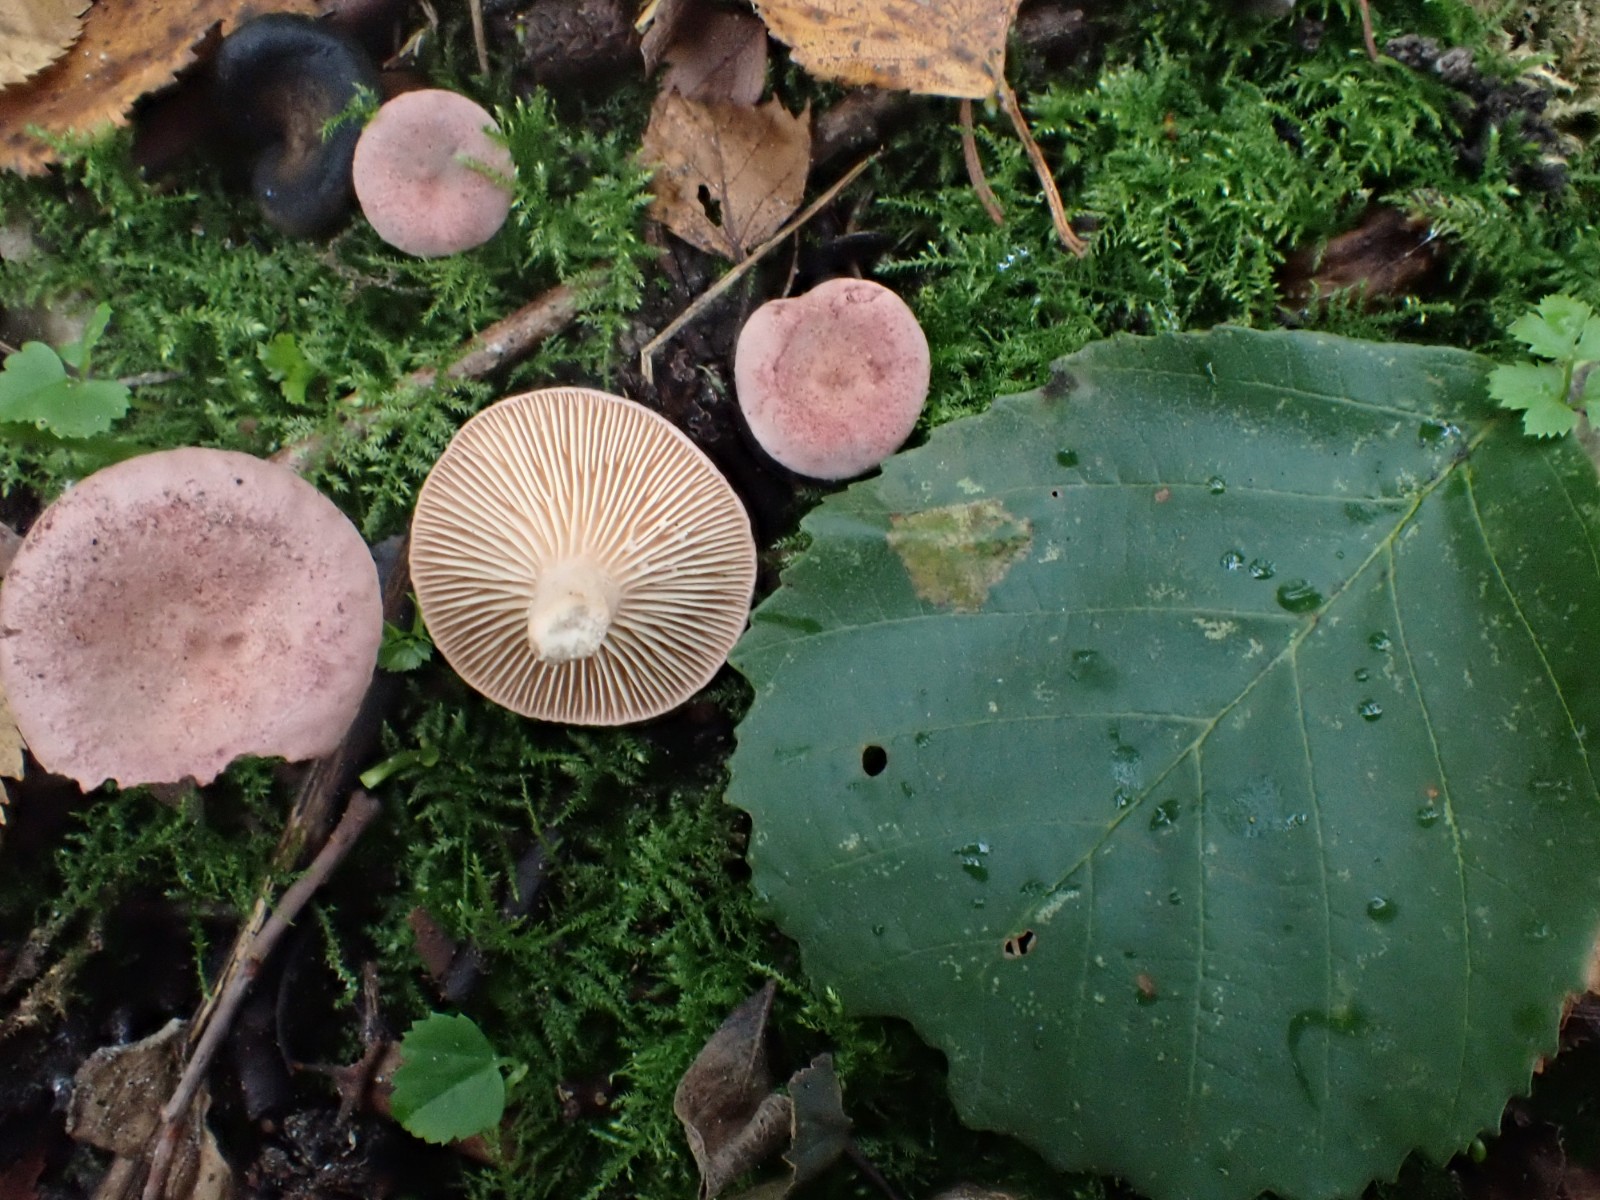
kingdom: Fungi
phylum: Basidiomycota
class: Agaricomycetes
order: Russulales
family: Russulaceae
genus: Lactarius
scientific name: Lactarius lilacinus
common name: lilla mælkehat
